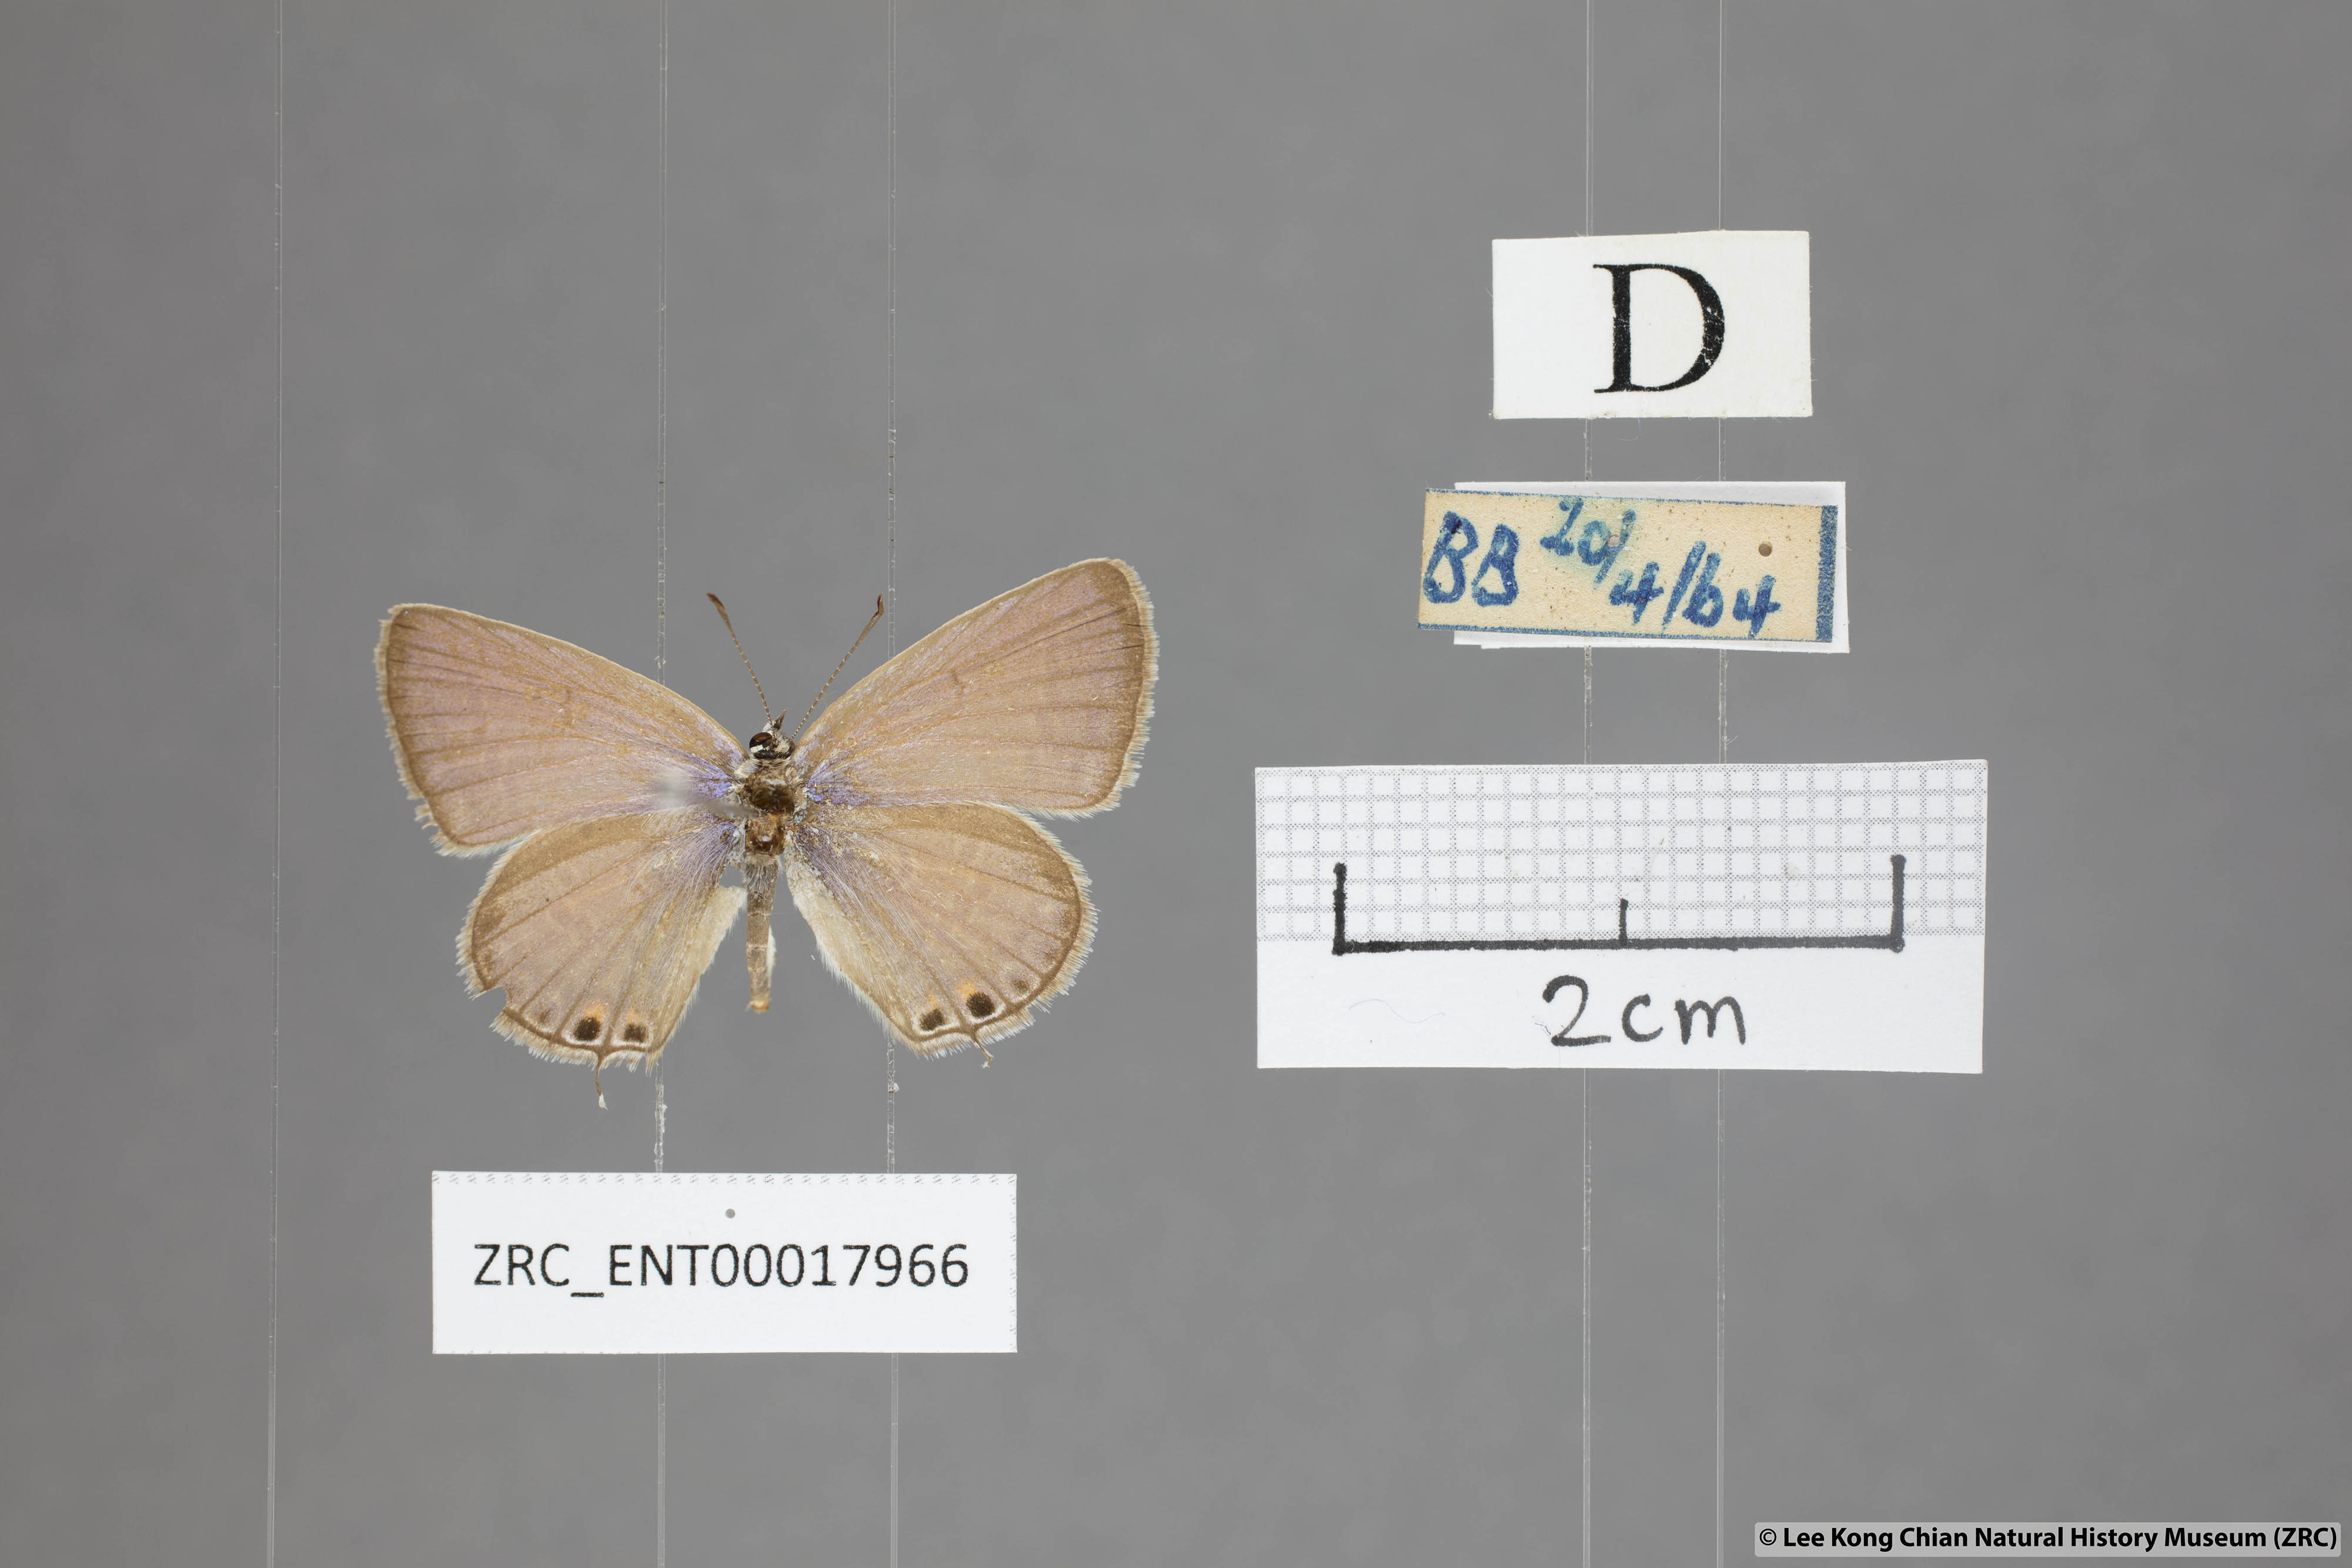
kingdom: Animalia
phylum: Arthropoda
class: Insecta
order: Lepidoptera
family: Lycaenidae
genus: Euchrysops
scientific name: Euchrysops cnejus
